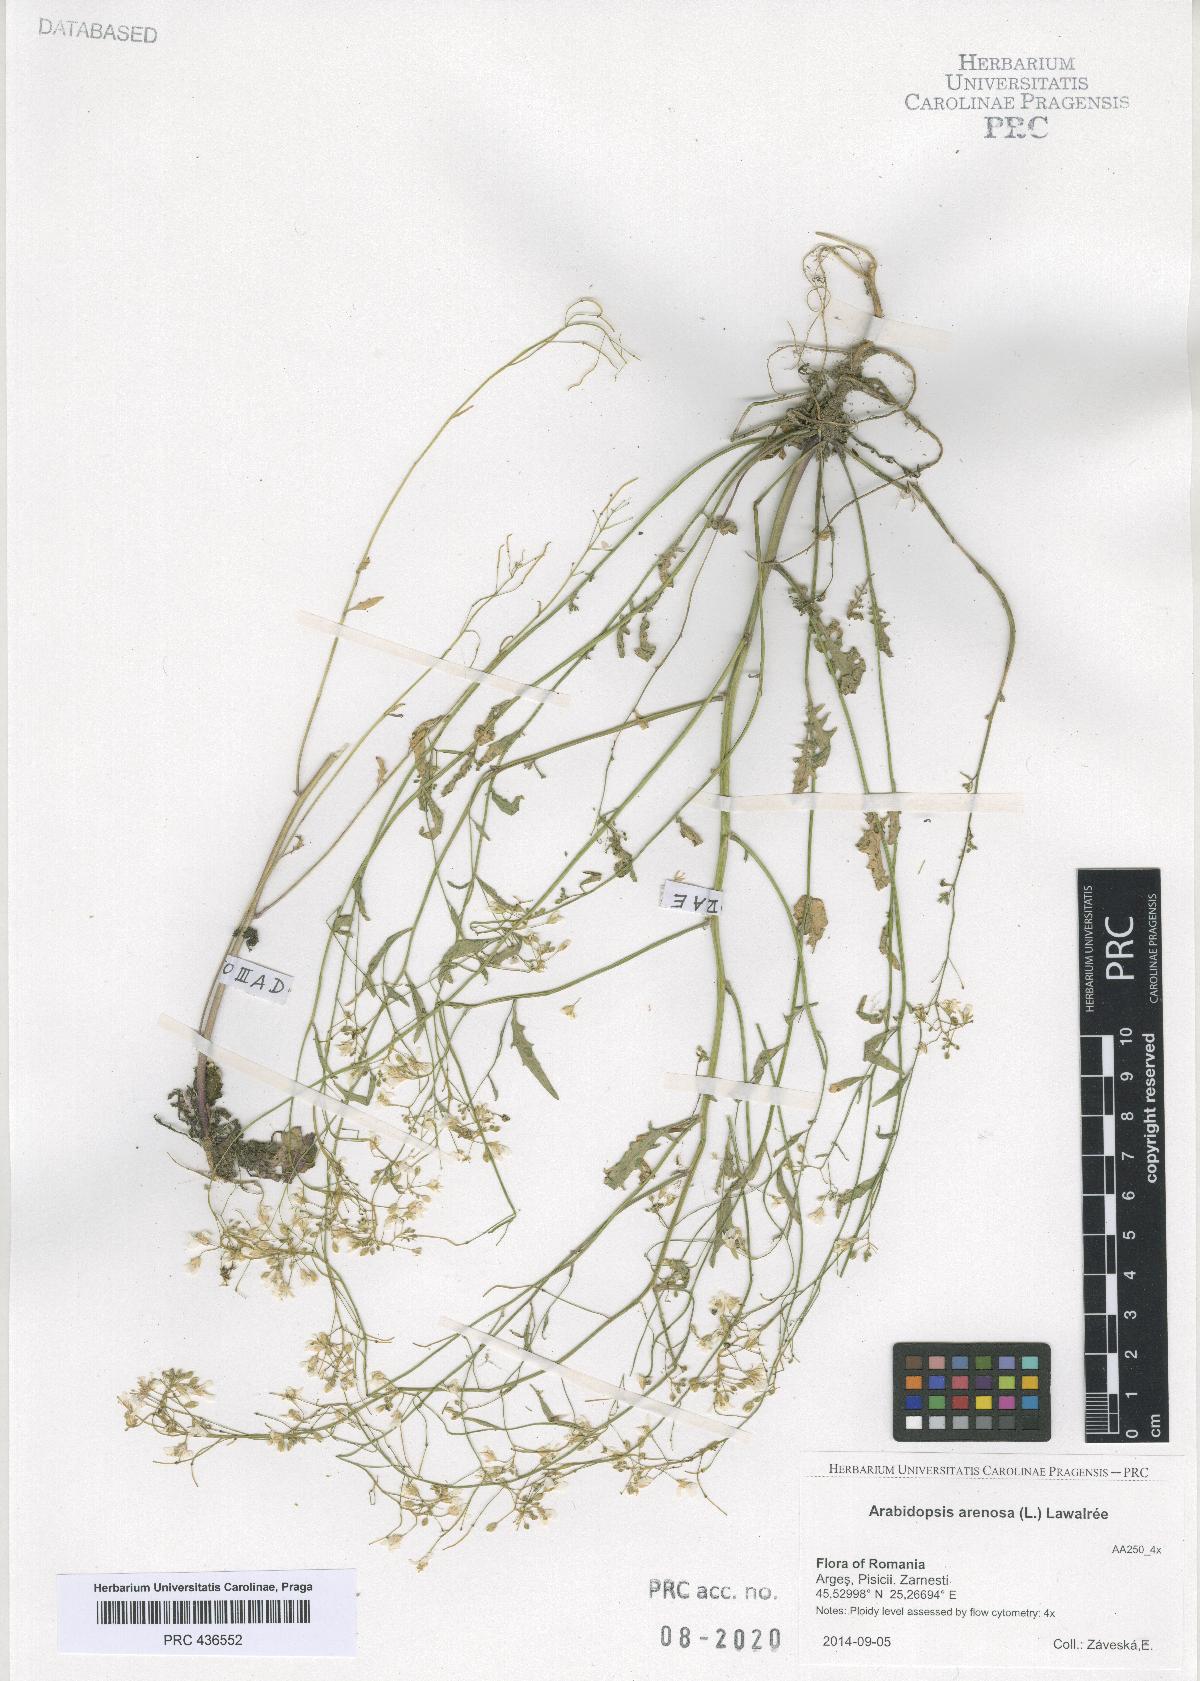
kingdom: Plantae
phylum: Tracheophyta
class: Magnoliopsida
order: Brassicales
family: Brassicaceae
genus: Arabidopsis
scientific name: Arabidopsis arenosa
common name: Sand rock-cress
